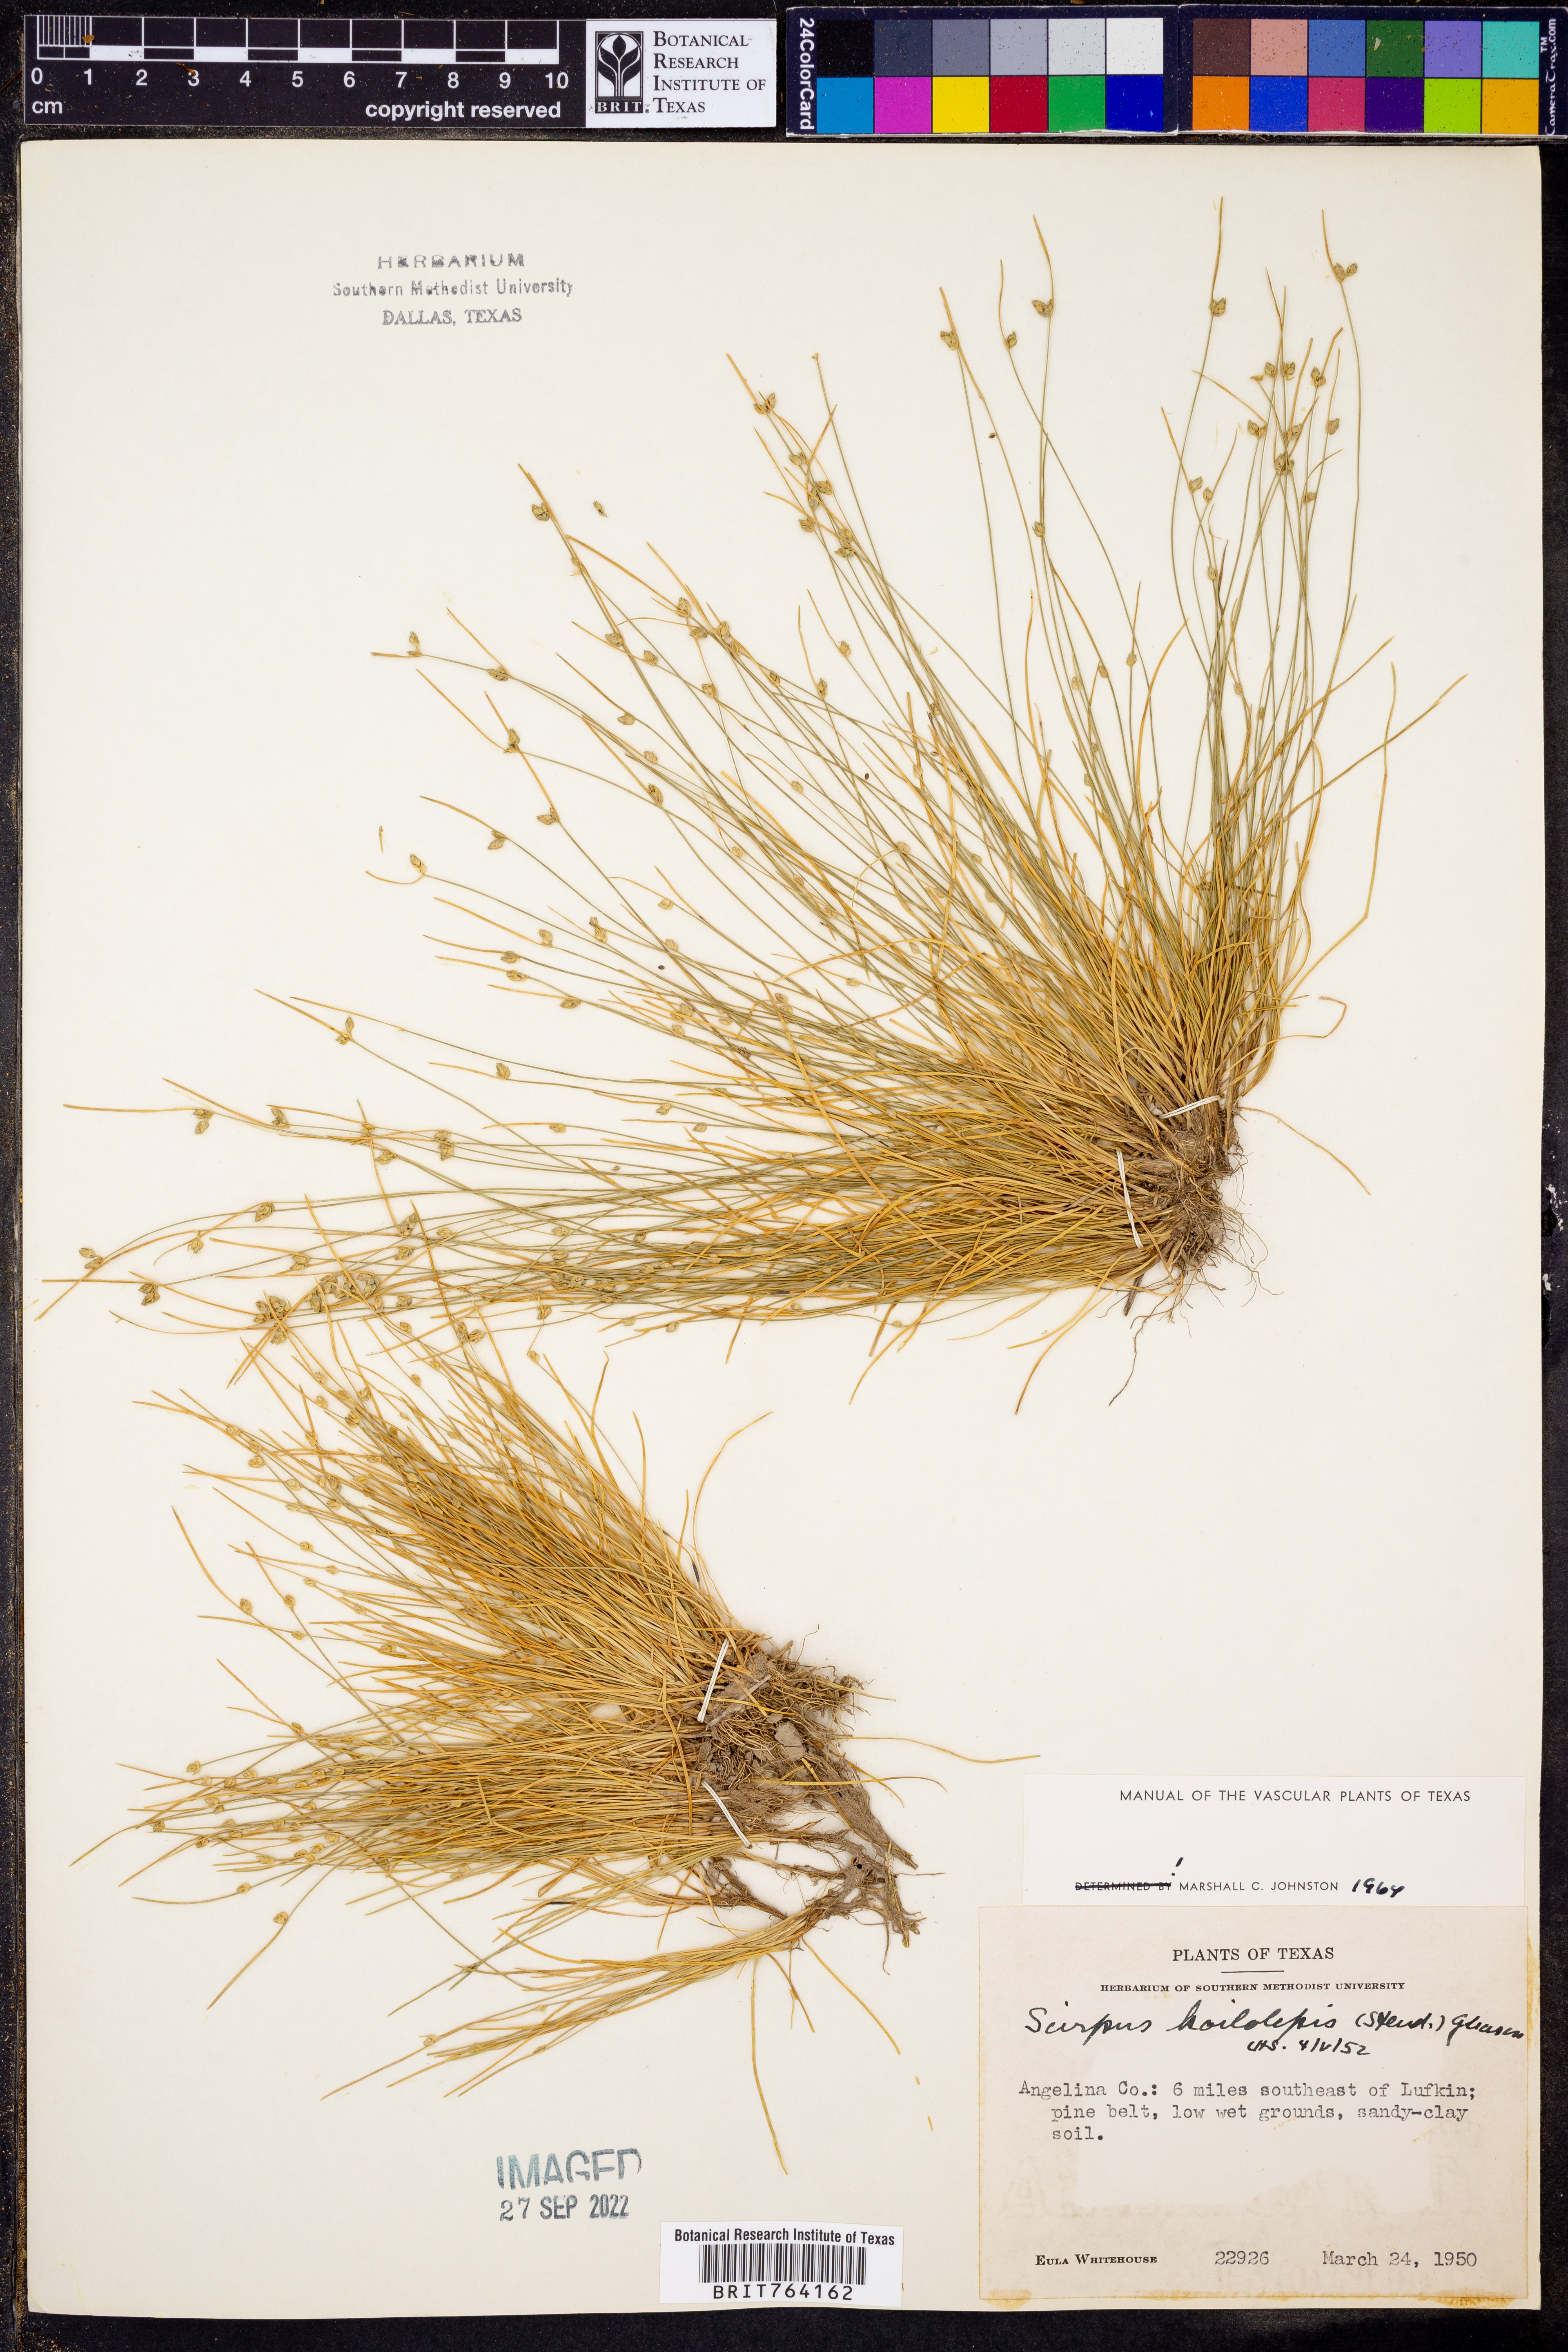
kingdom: Plantae
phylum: Tracheophyta
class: Liliopsida
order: Poales
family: Cyperaceae
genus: Isolepis
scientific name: Isolepis carinata
